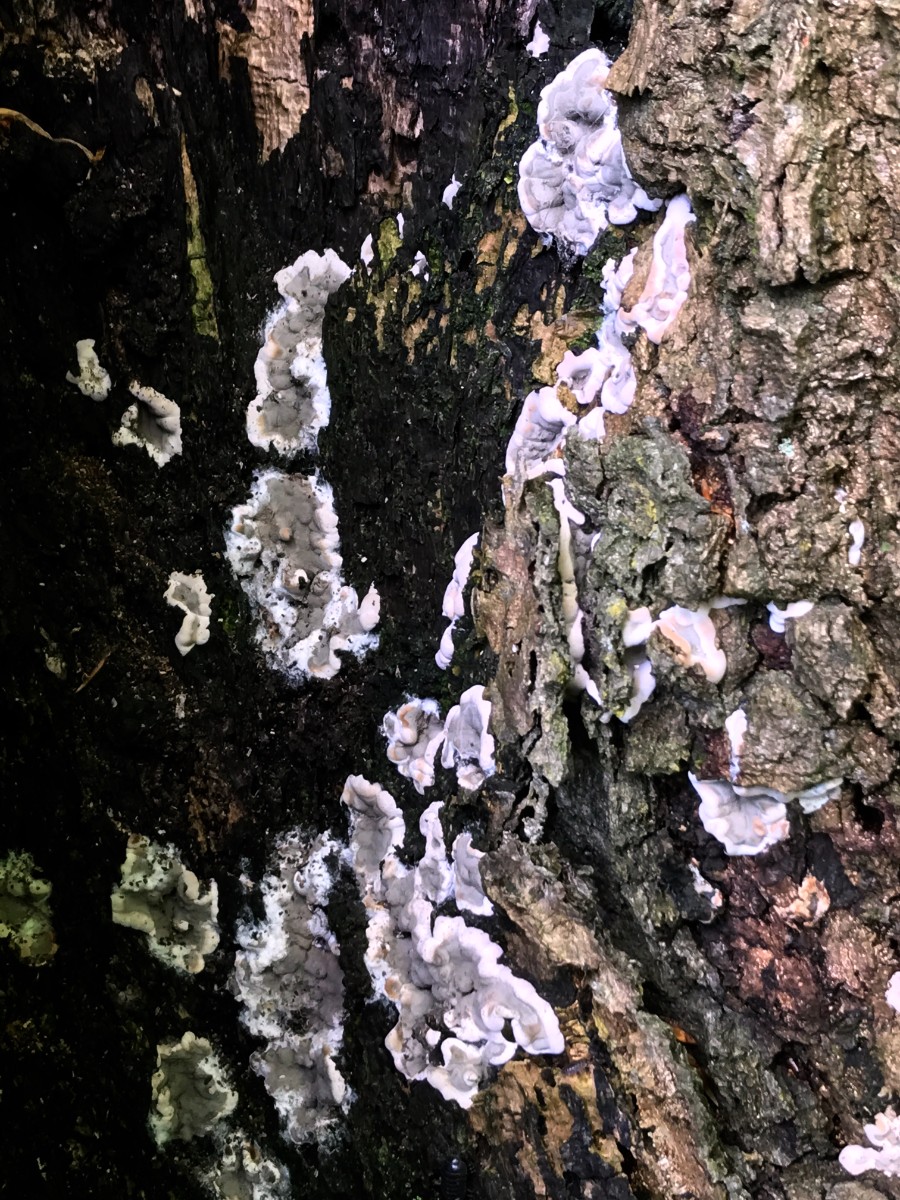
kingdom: Fungi
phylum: Ascomycota
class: Sordariomycetes
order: Xylariales
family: Xylariaceae
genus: Kretzschmaria
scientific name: Kretzschmaria deusta
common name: stor kulsvamp
